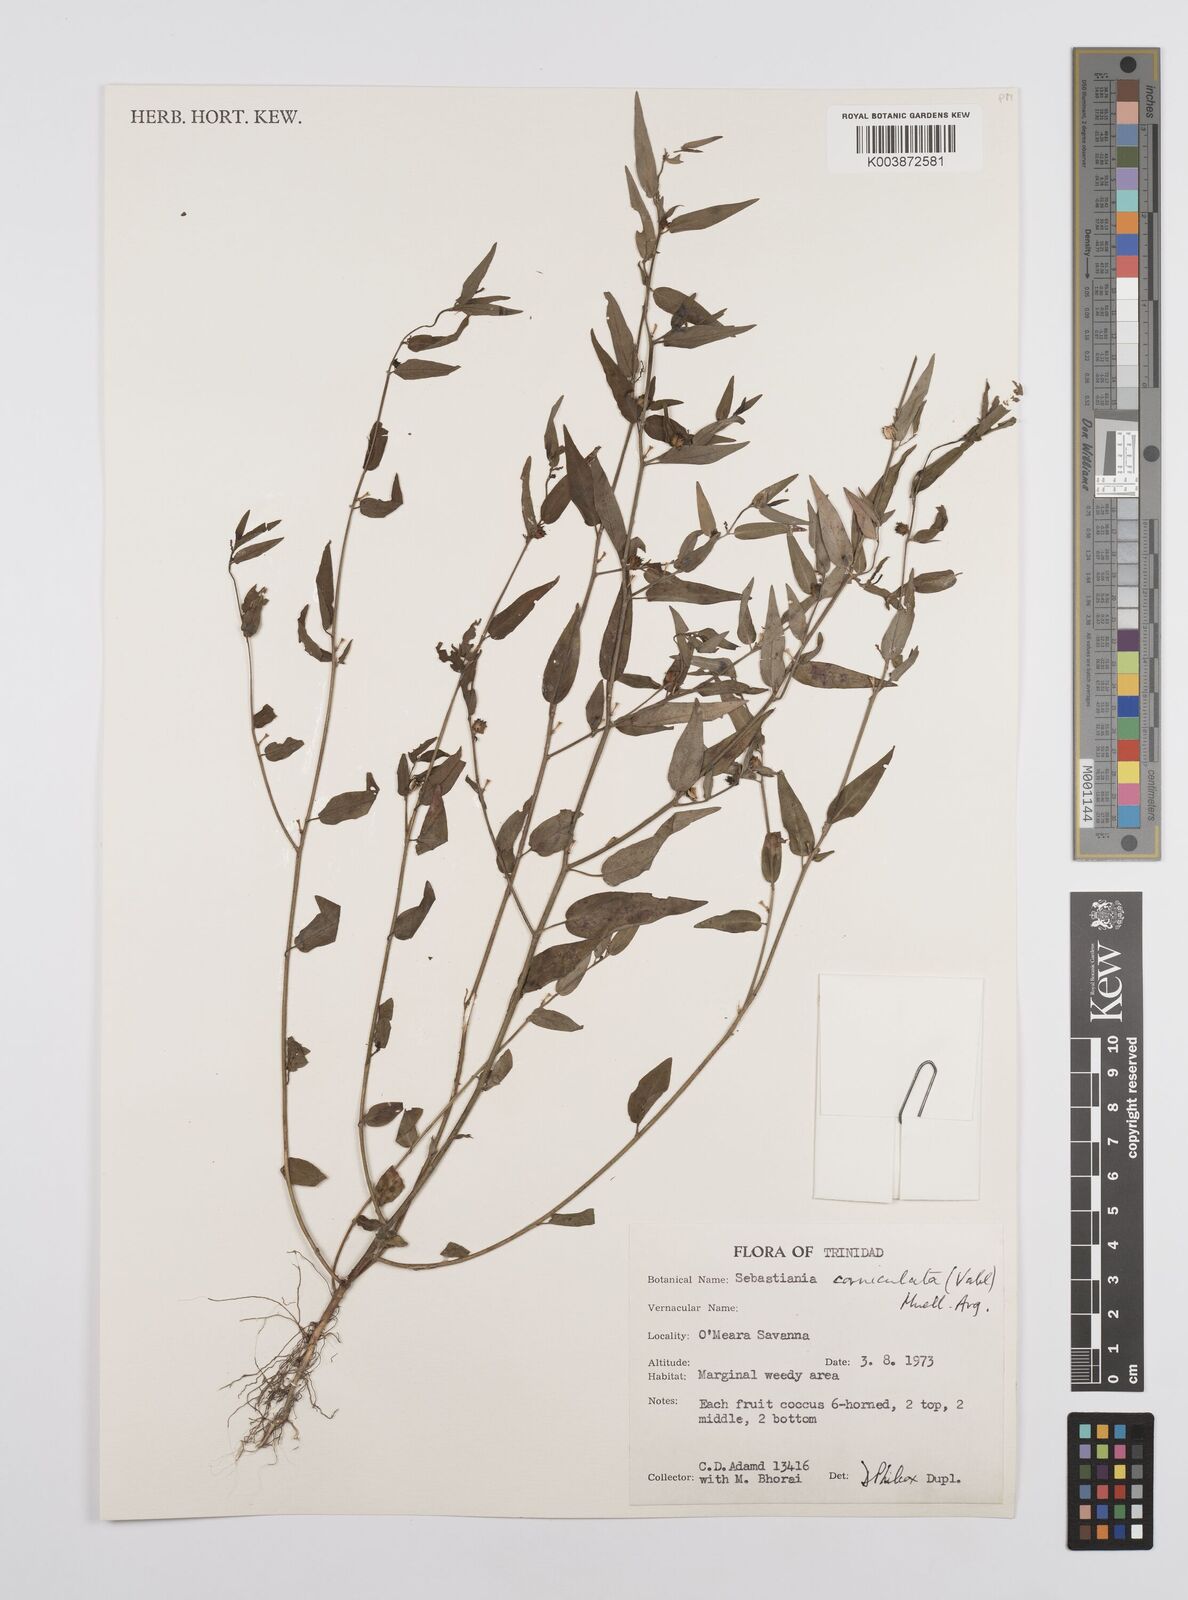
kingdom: Plantae
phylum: Tracheophyta
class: Magnoliopsida
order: Malpighiales
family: Euphorbiaceae
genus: Microstachys
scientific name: Microstachys corniculata
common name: Hato tejas
